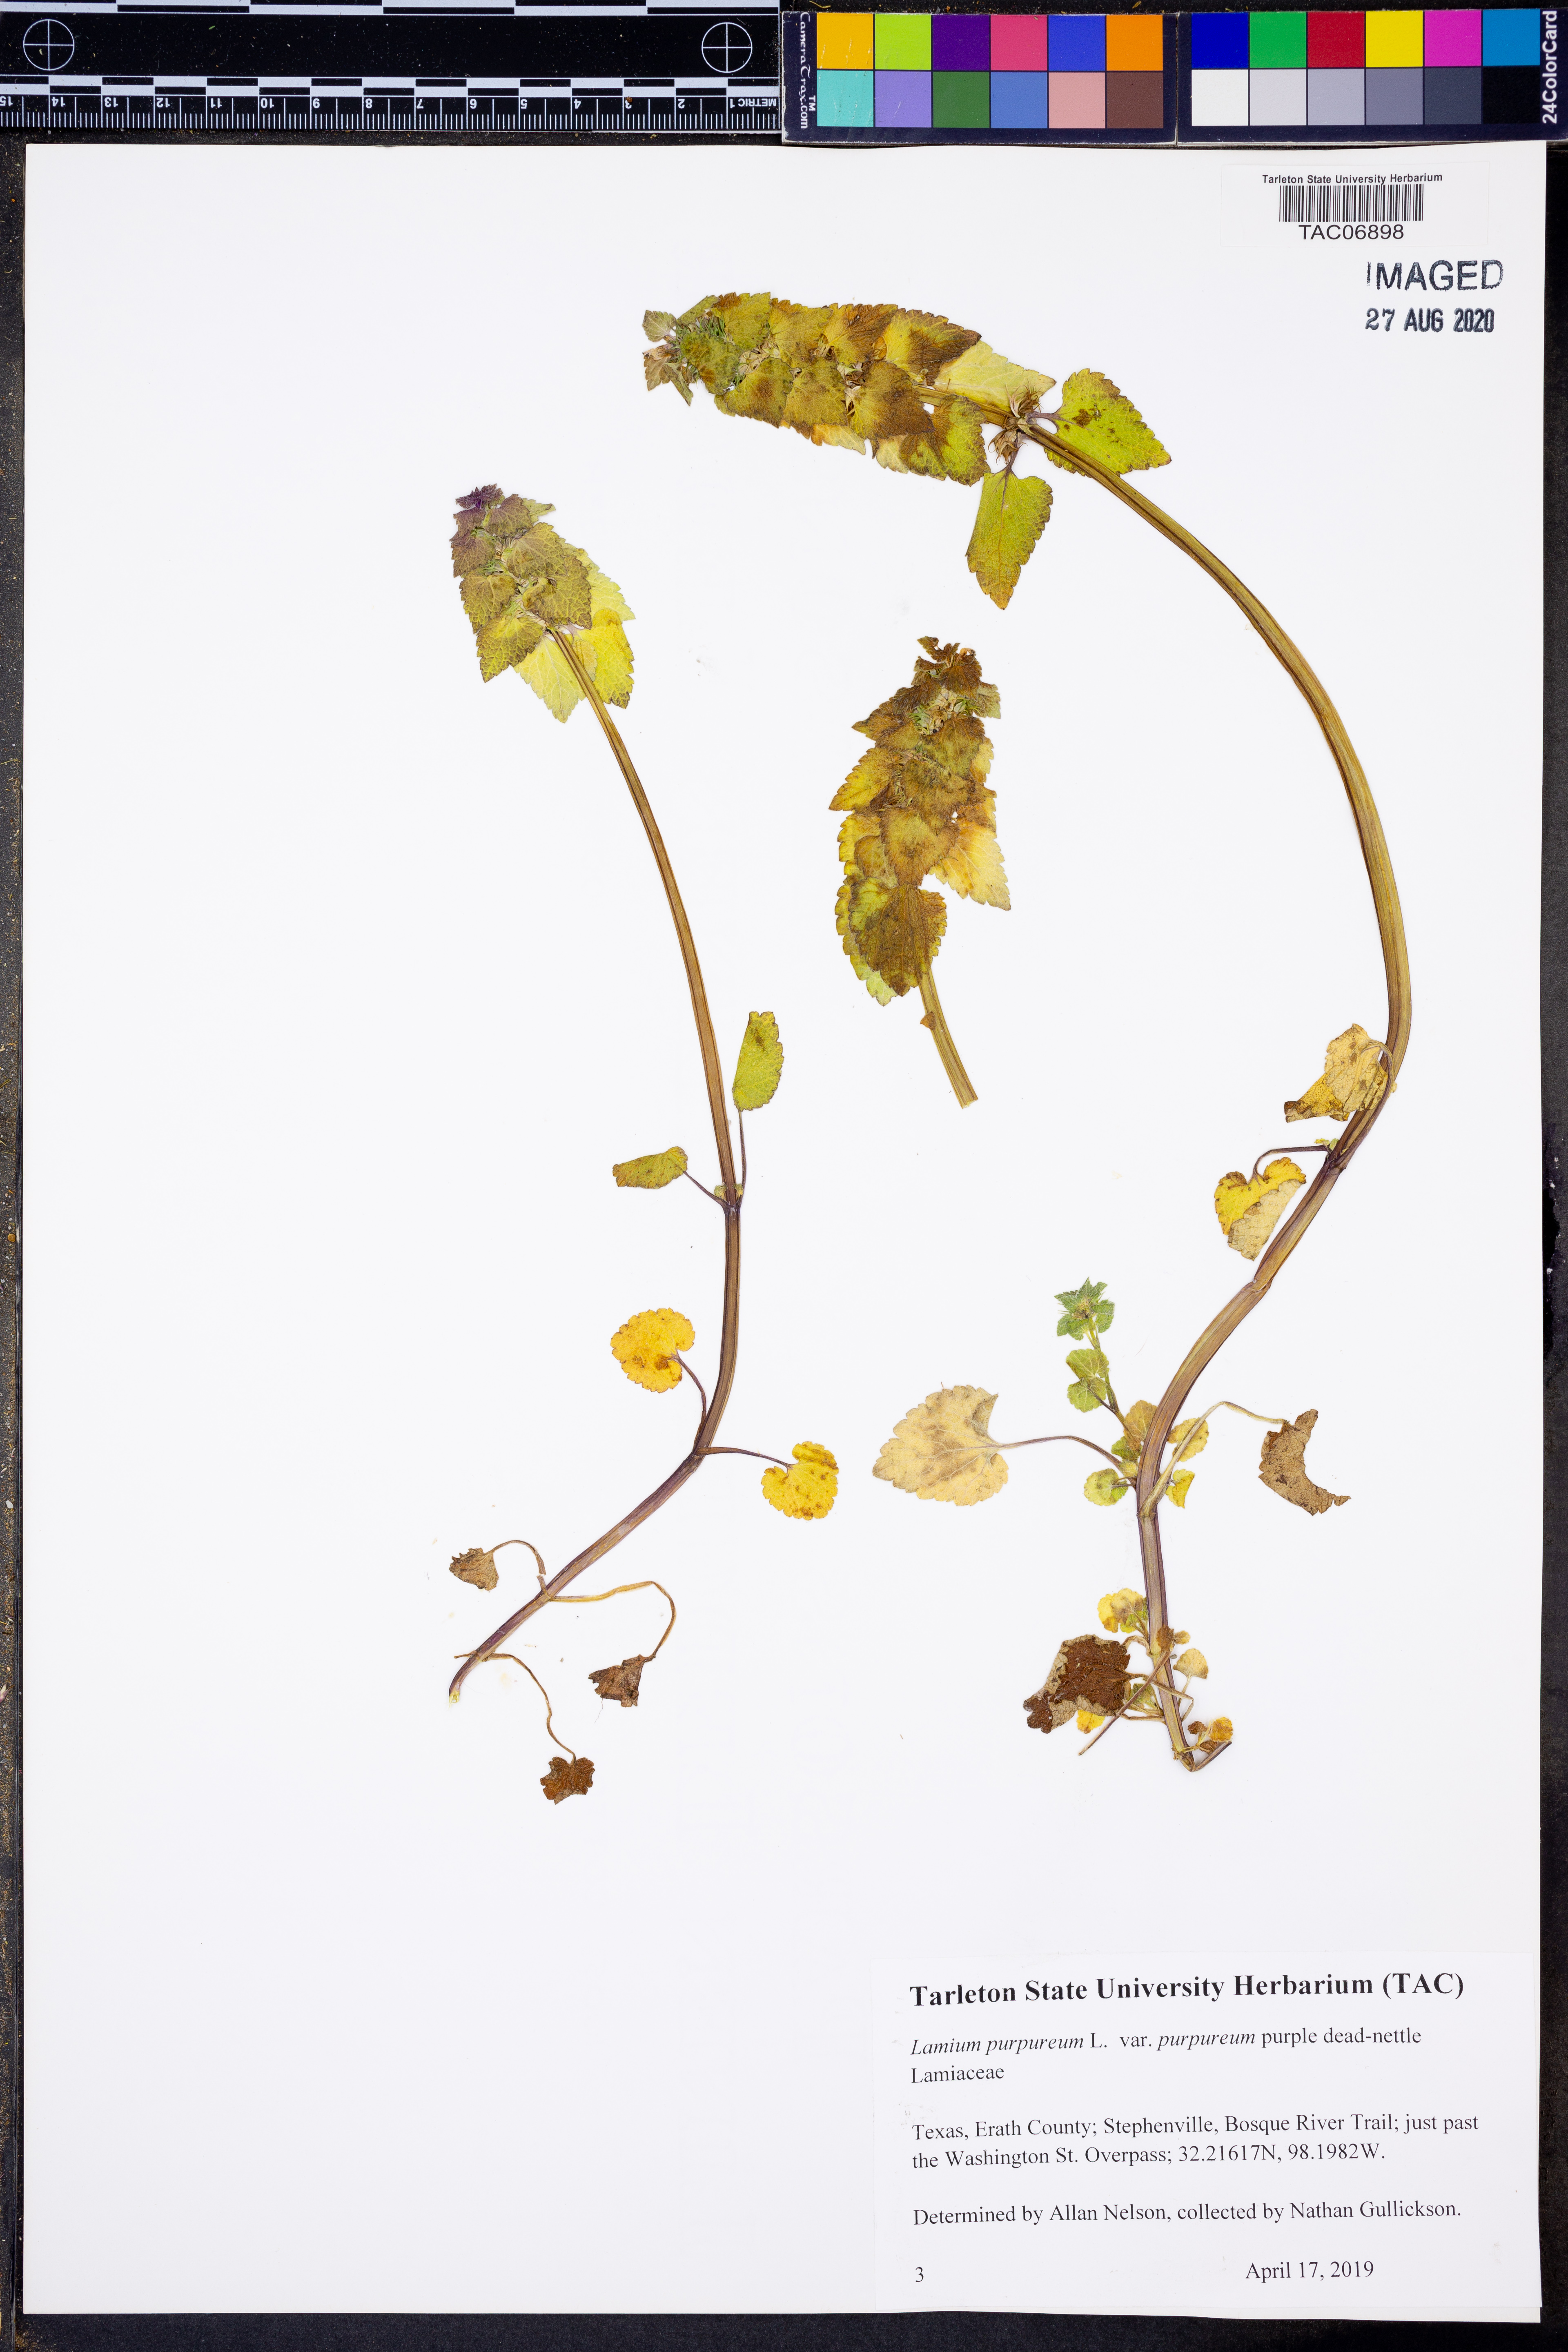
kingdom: Plantae
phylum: Tracheophyta
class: Magnoliopsida
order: Lamiales
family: Lamiaceae
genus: Lamium
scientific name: Lamium purpureum
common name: Red dead-nettle
